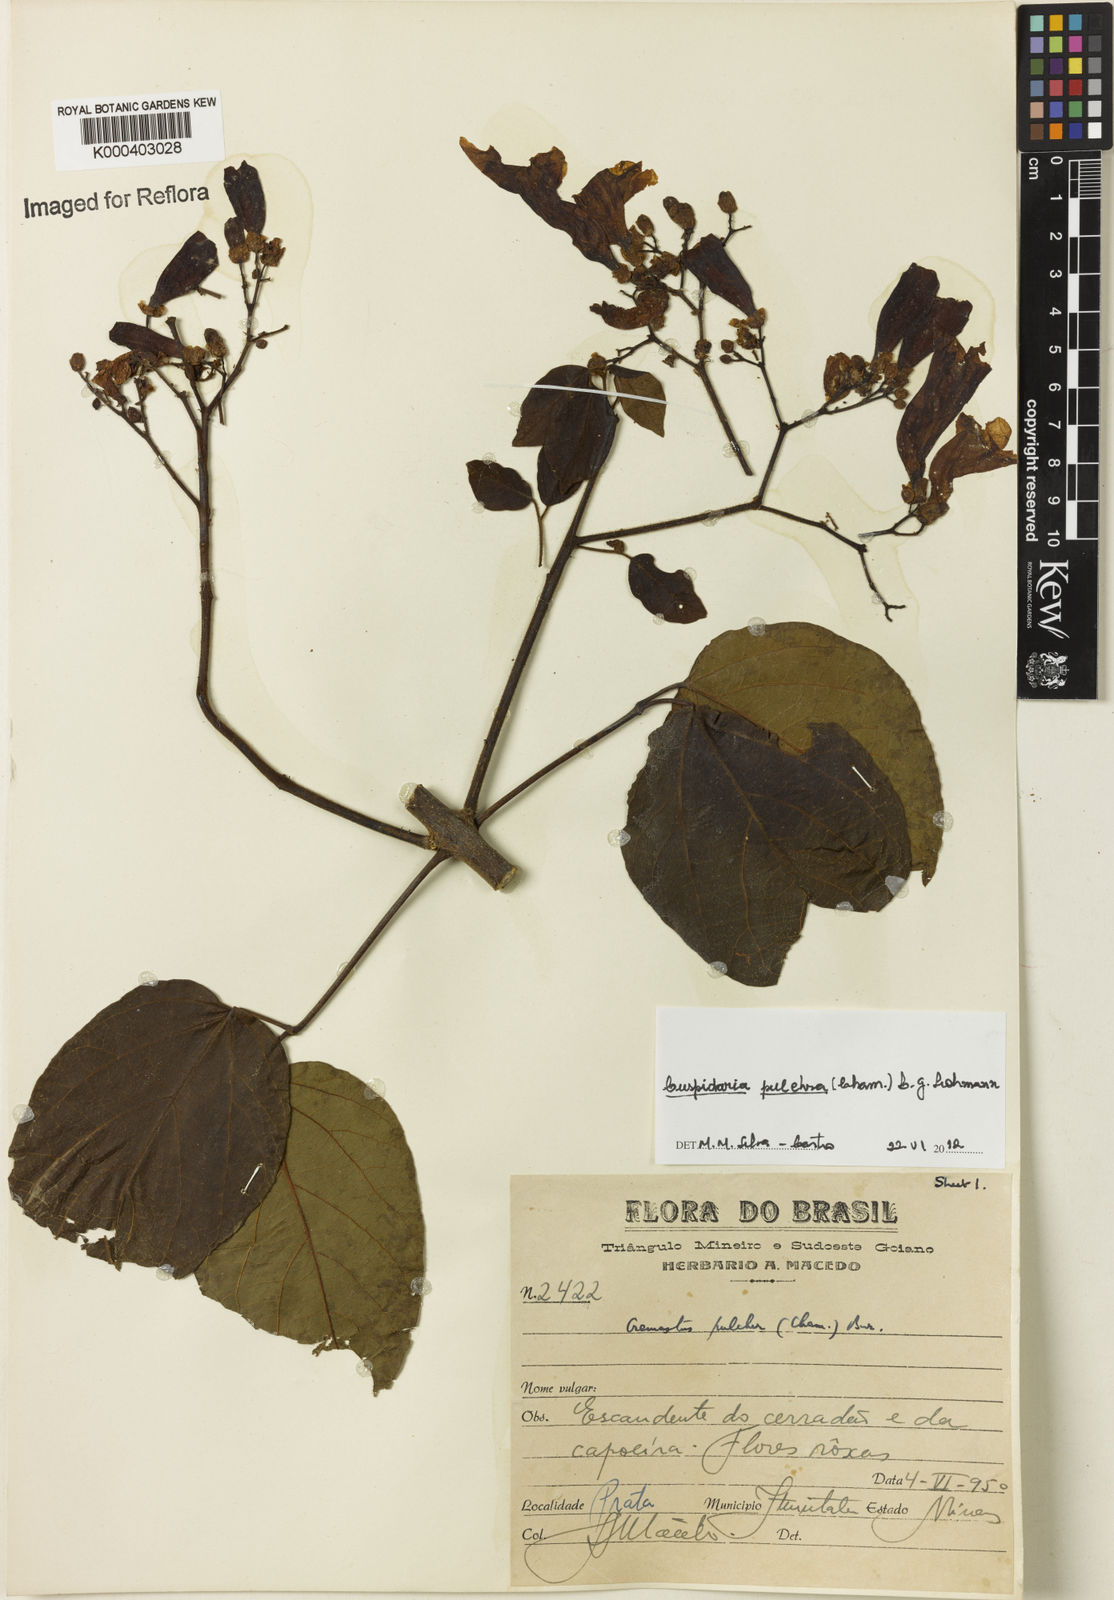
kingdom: Plantae
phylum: Tracheophyta
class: Magnoliopsida
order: Lamiales
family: Bignoniaceae
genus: Cuspidaria
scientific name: Cuspidaria pulchra
